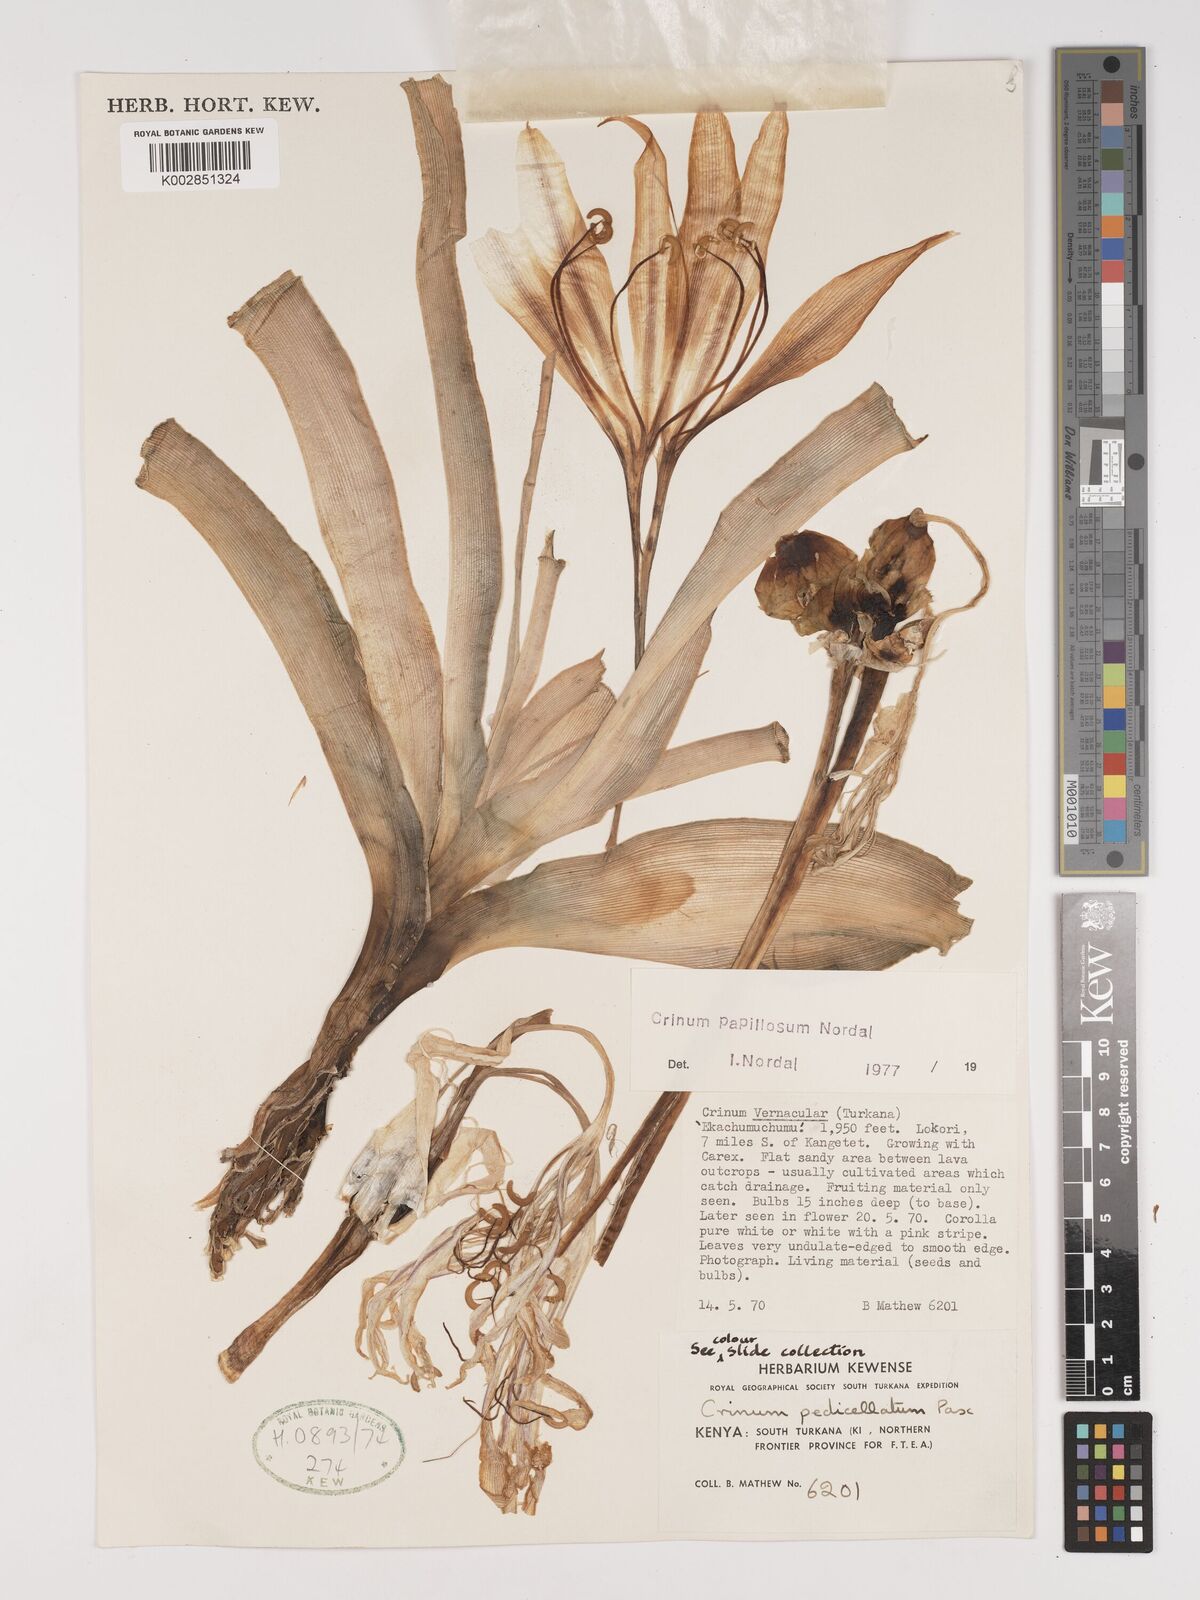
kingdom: Plantae
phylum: Tracheophyta
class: Liliopsida
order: Asparagales
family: Amaryllidaceae
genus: Crinum
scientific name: Crinum papillosum
